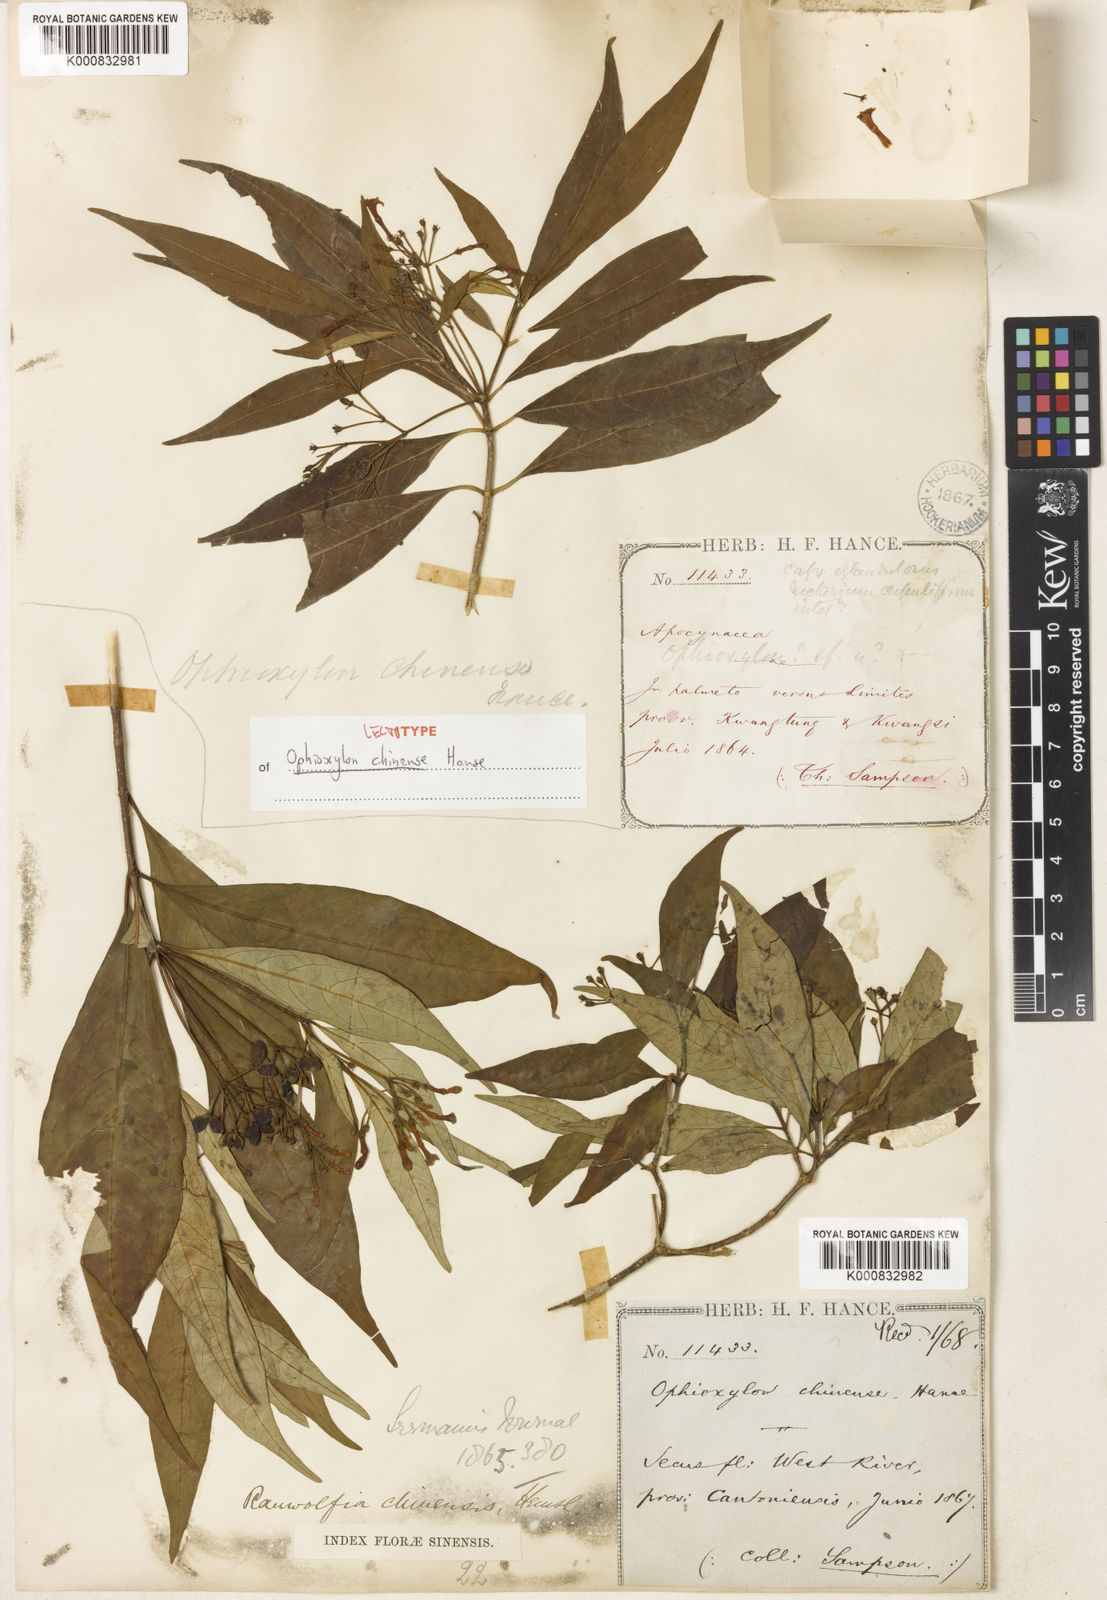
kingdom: Plantae
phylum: Tracheophyta
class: Magnoliopsida
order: Gentianales
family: Apocynaceae
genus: Rauvolfia
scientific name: Rauvolfia verticillata
